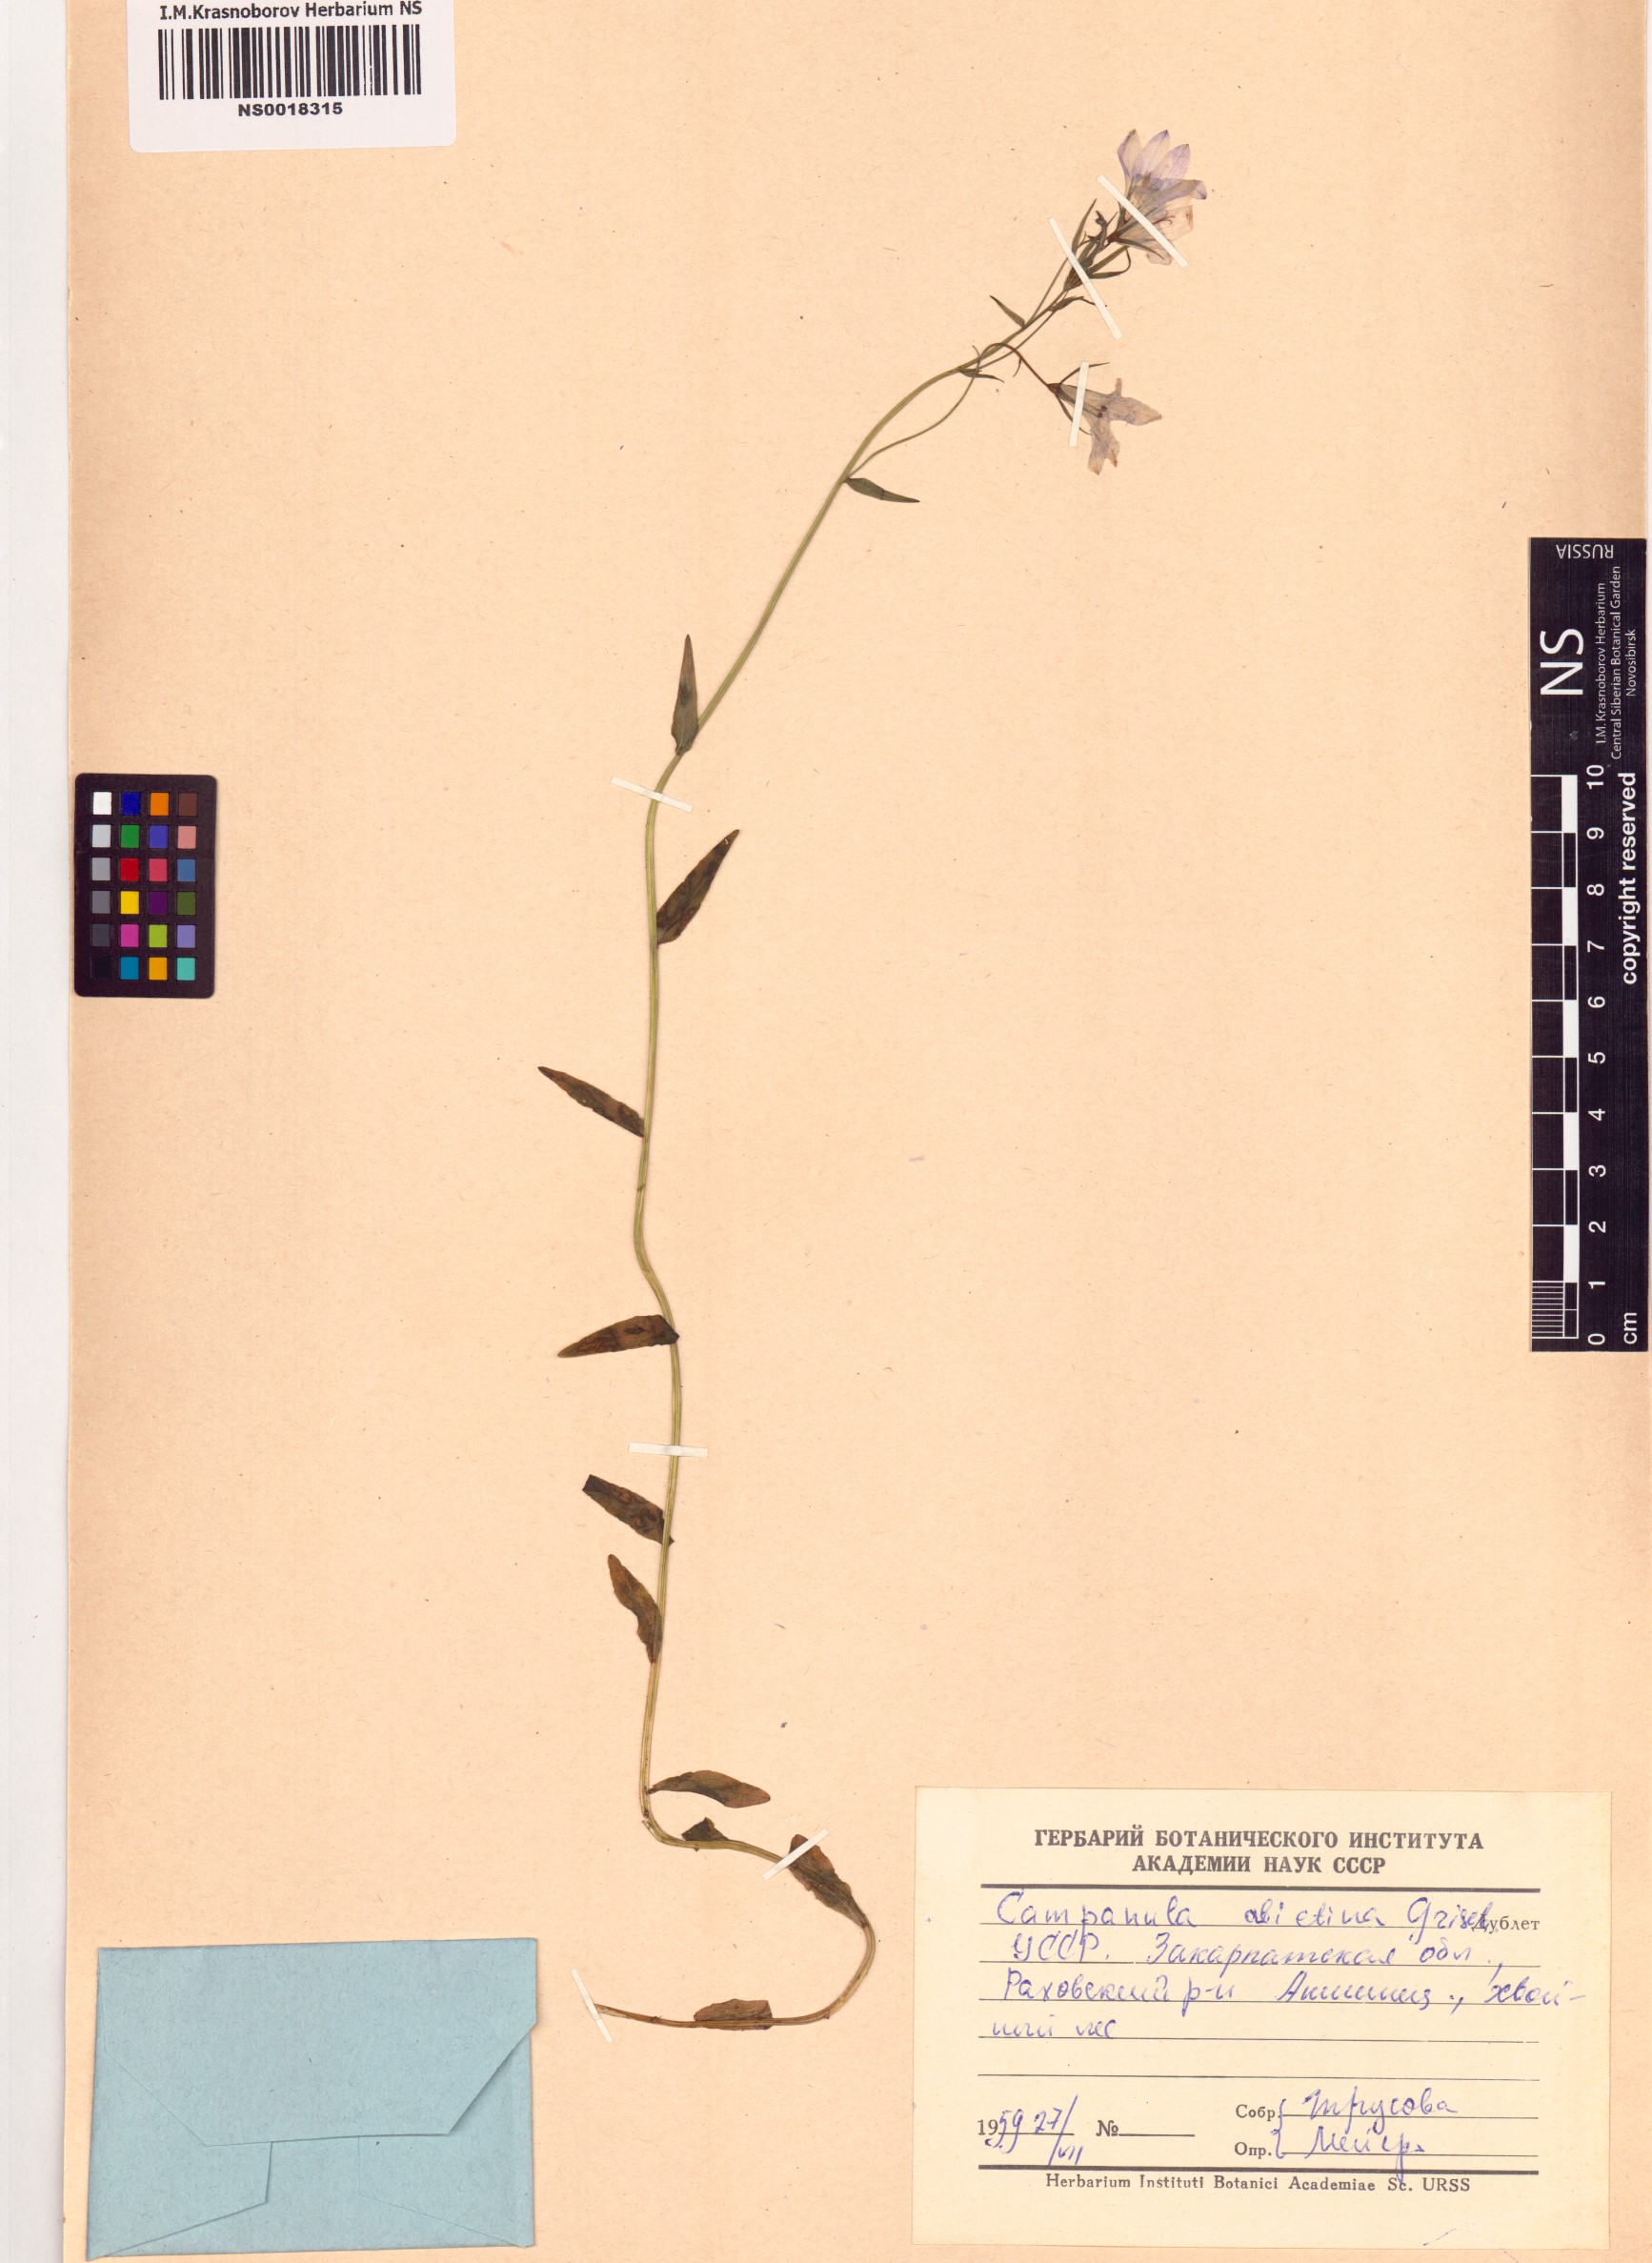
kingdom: Plantae
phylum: Tracheophyta
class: Magnoliopsida
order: Asterales
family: Campanulaceae
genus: Campanula
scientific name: Campanula patula
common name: Spreading bellflower
